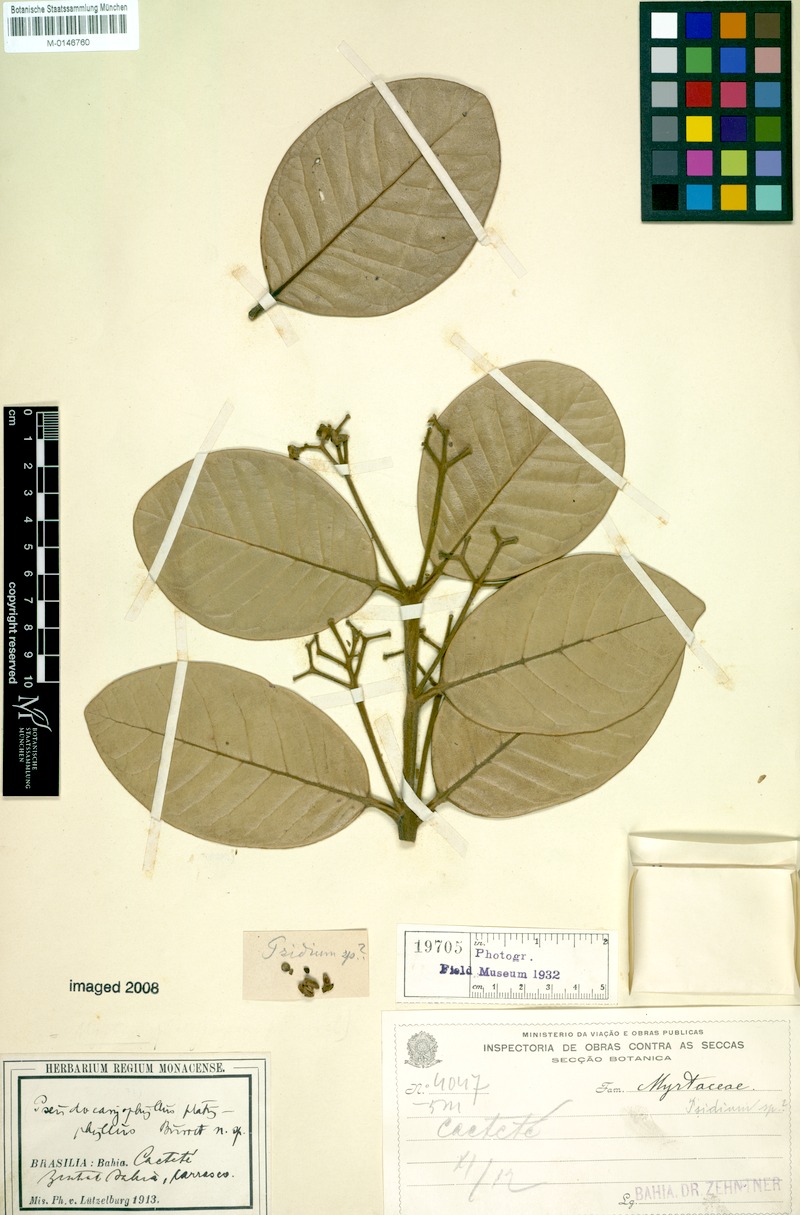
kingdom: Plantae
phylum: Tracheophyta
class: Magnoliopsida
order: Myrtales
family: Myrtaceae
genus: Pimenta
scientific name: Pimenta pseudocaryophyllus
